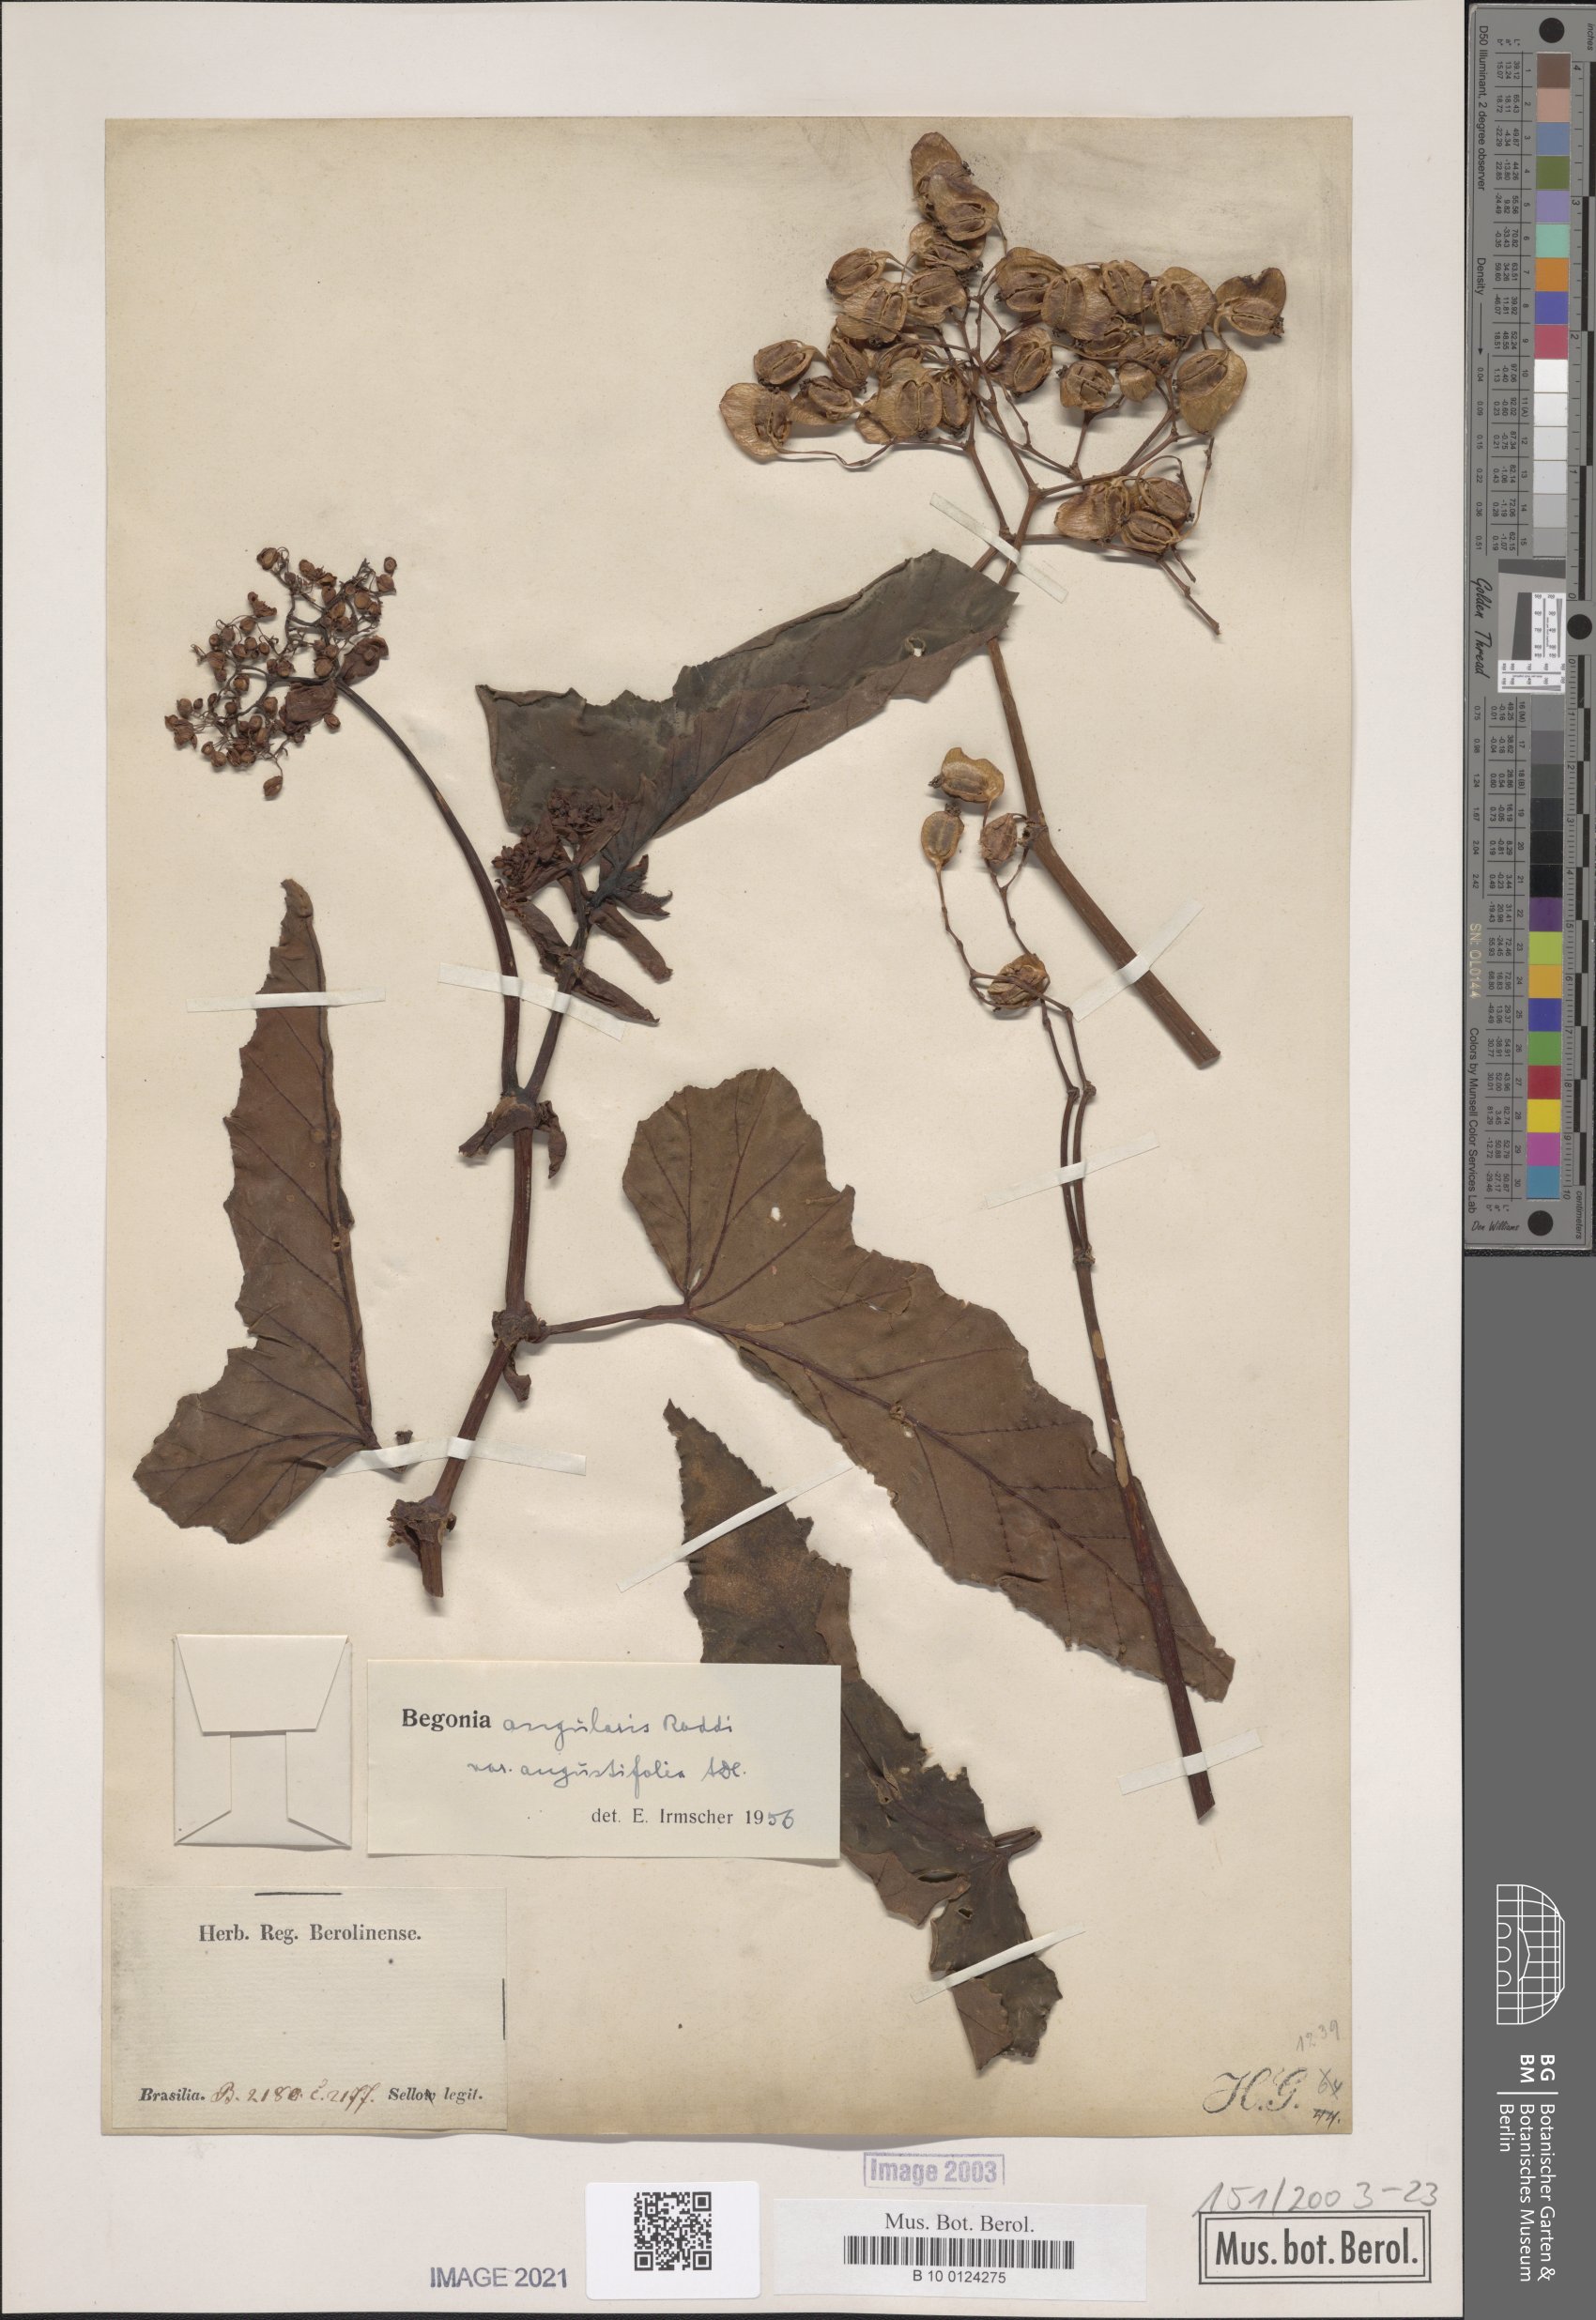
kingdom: Plantae
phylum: Tracheophyta
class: Magnoliopsida
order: Cucurbitales
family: Begoniaceae
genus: Begonia
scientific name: Begonia angularis
